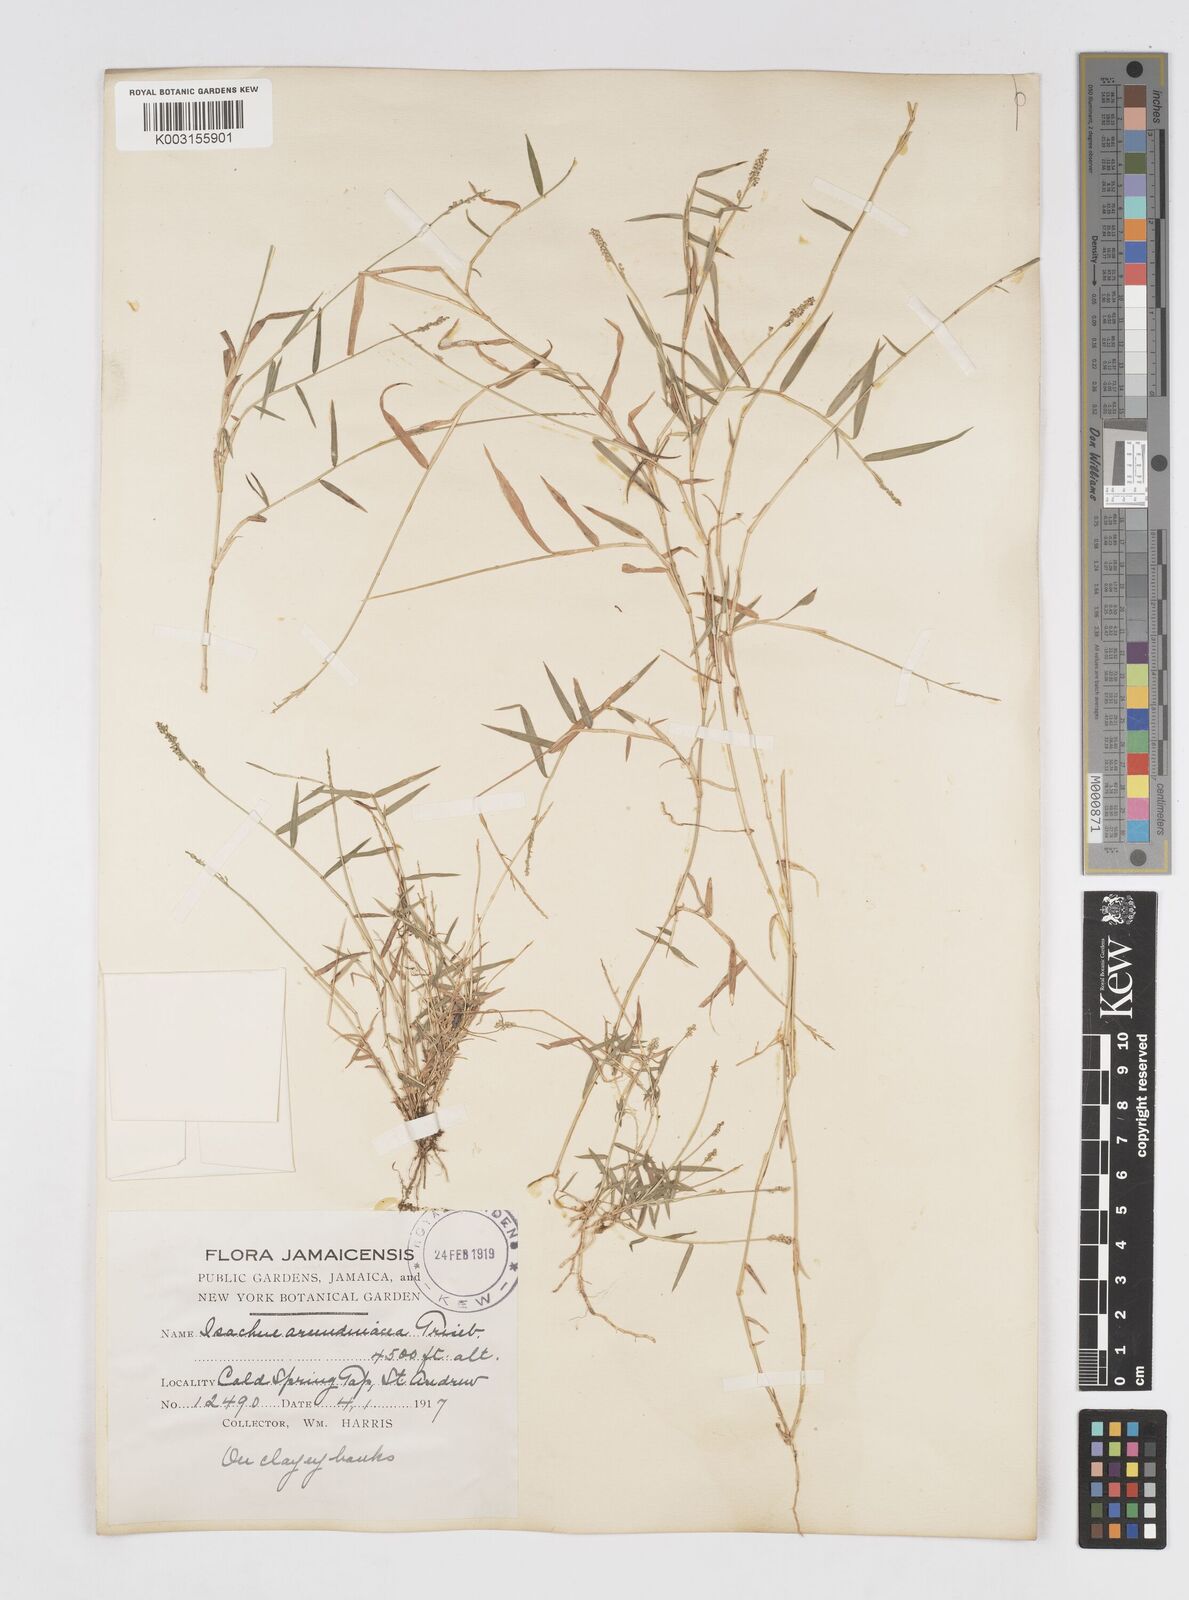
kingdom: Plantae
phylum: Tracheophyta
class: Liliopsida
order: Poales
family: Poaceae
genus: Isachne
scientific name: Isachne pygmaea
